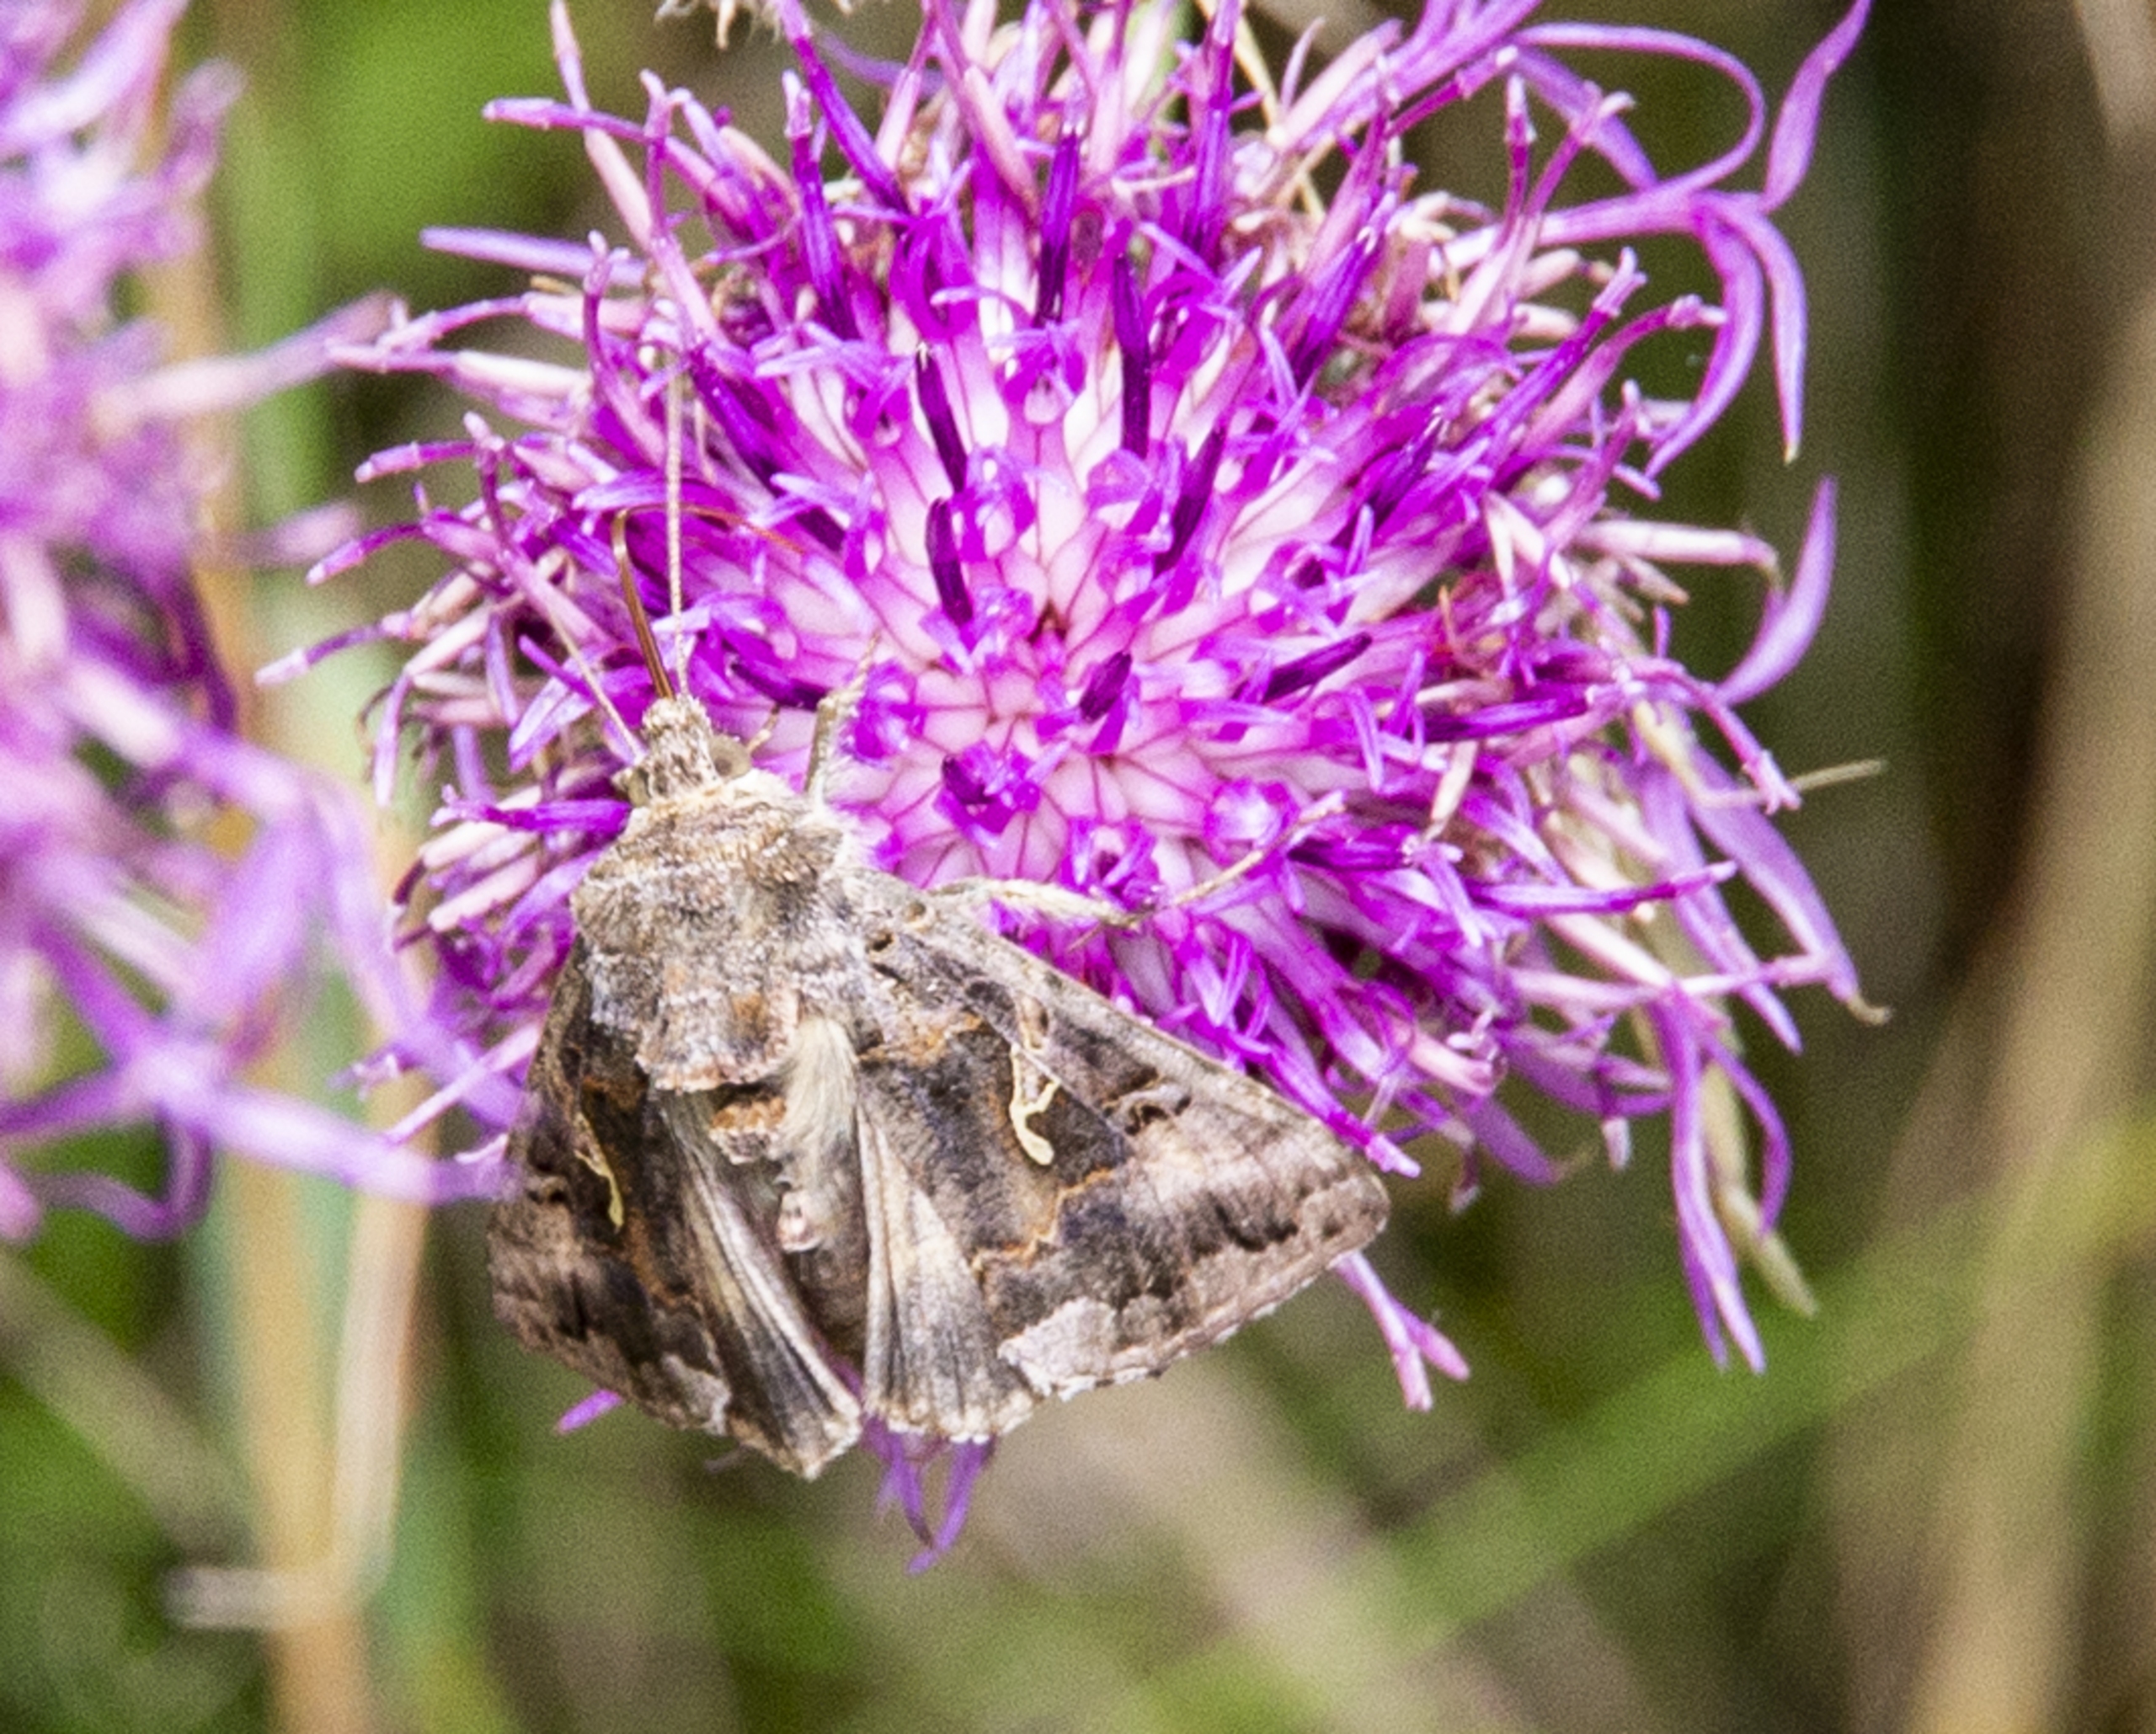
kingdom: Animalia
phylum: Arthropoda
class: Insecta
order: Lepidoptera
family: Noctuidae
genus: Autographa
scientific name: Autographa gamma
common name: Gammaugle
